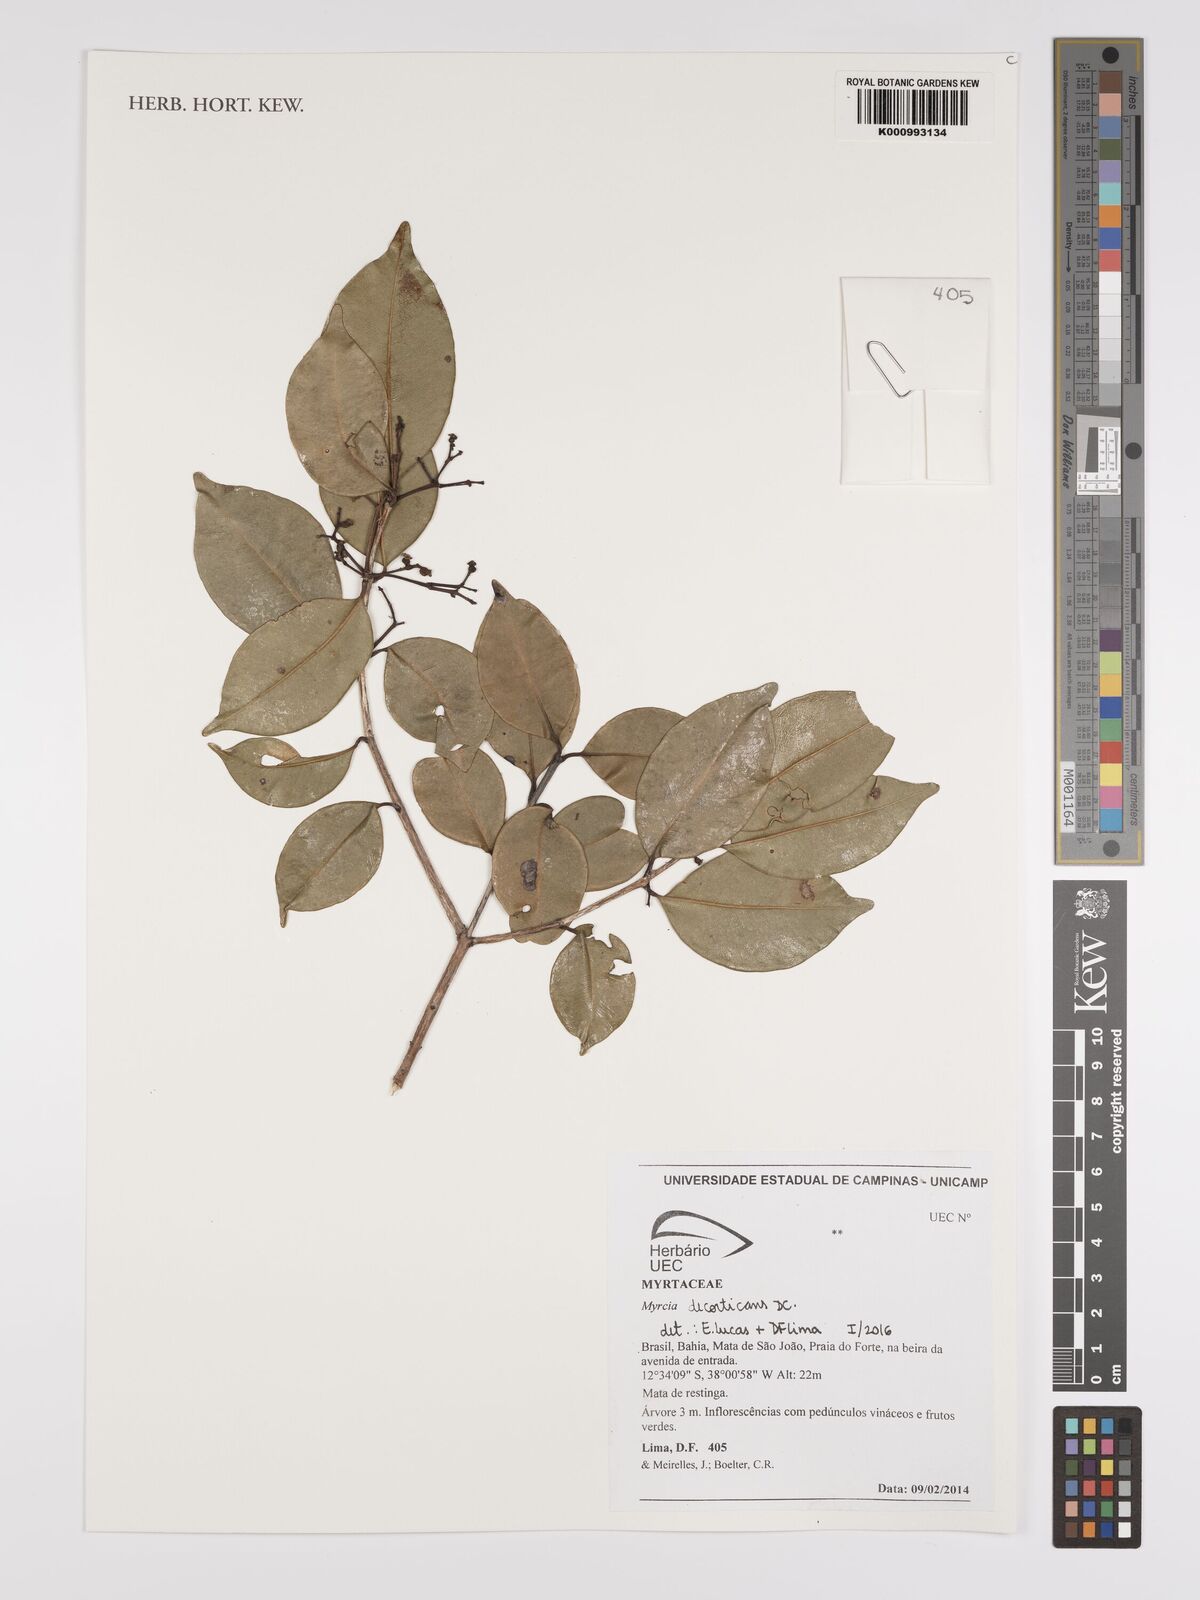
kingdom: Plantae
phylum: Tracheophyta
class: Magnoliopsida
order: Myrtales
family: Myrtaceae
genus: Myrcia
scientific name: Myrcia decorticans
